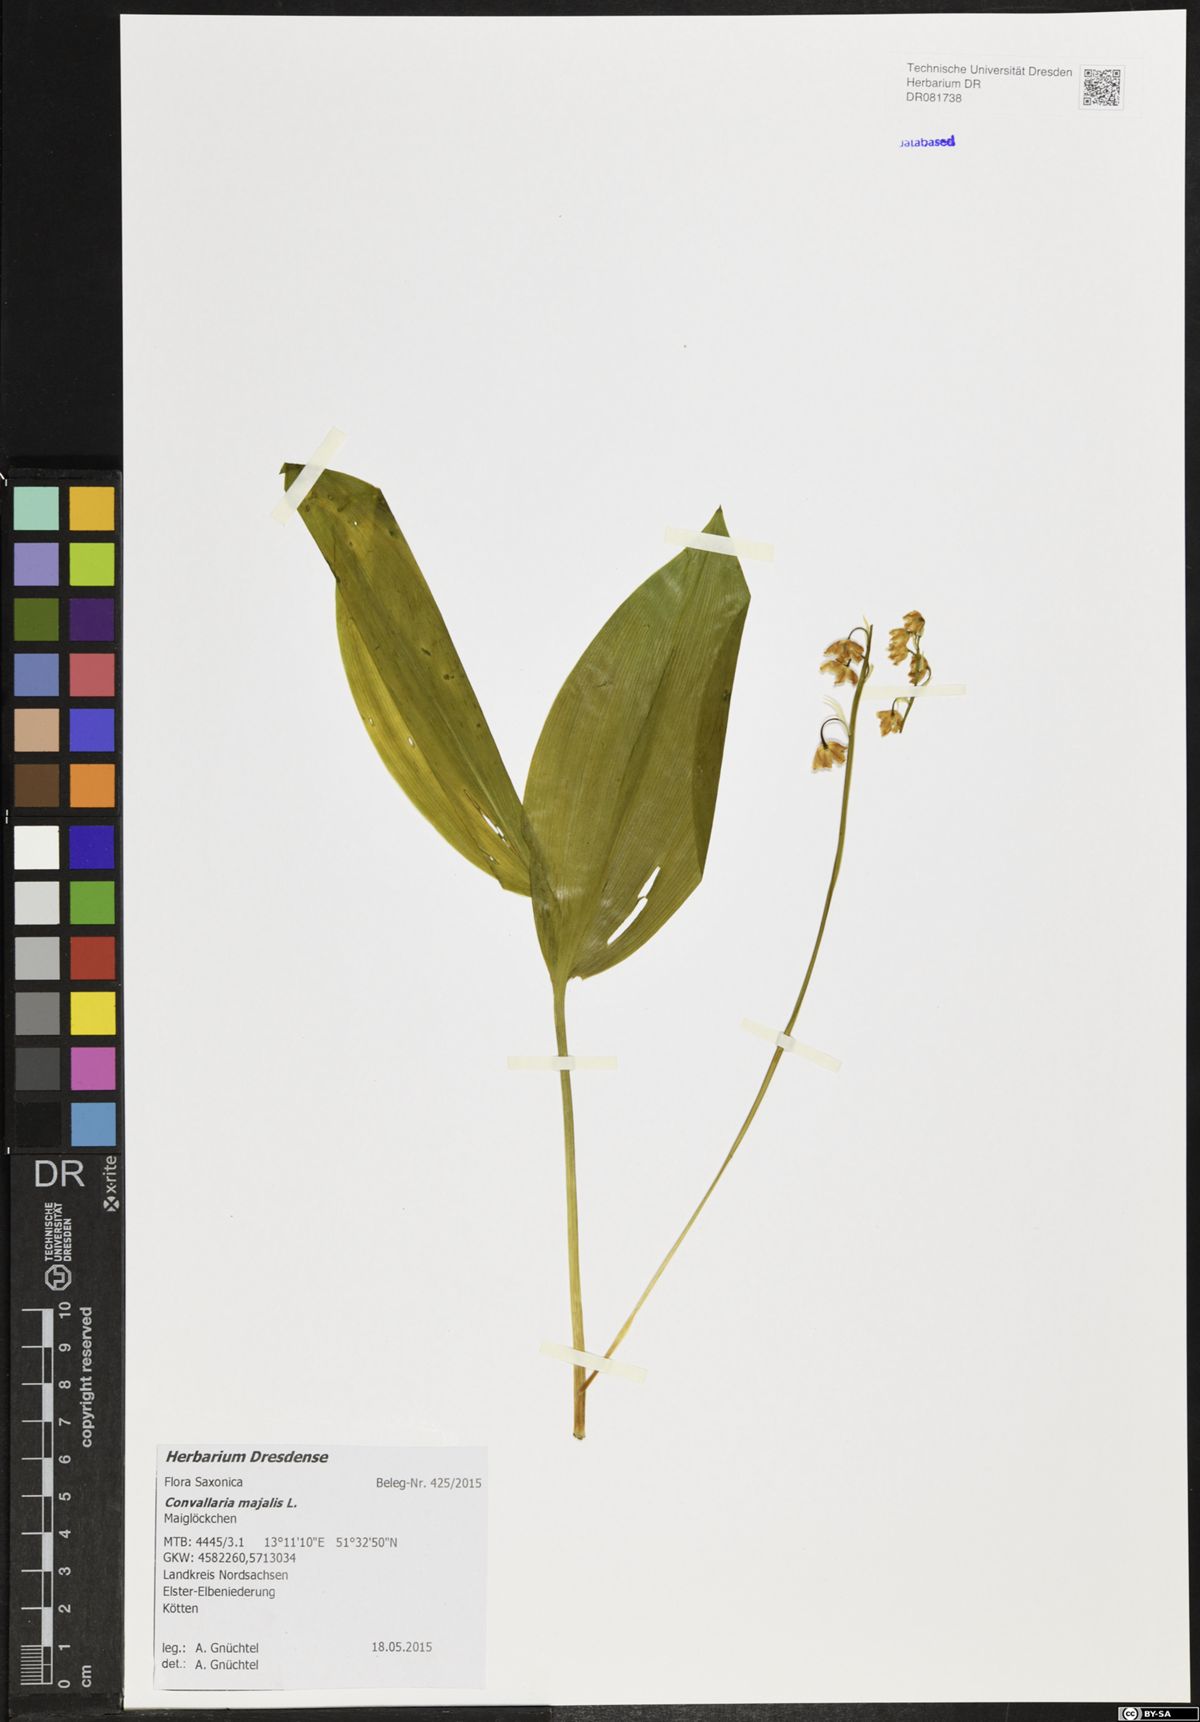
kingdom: Plantae
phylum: Tracheophyta
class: Liliopsida
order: Asparagales
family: Asparagaceae
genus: Convallaria
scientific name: Convallaria majalis
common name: Lily-of-the-valley
